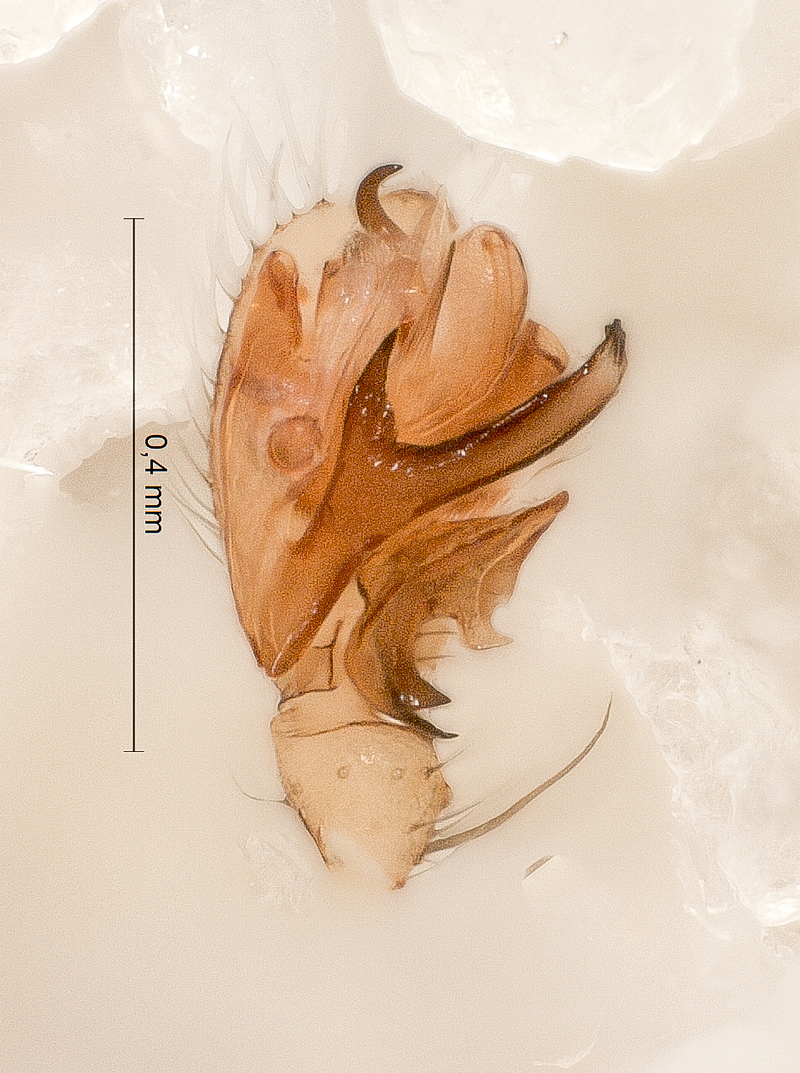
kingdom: Animalia
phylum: Arthropoda
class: Arachnida
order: Araneae
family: Linyphiidae
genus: Palliduphantes
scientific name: Palliduphantes pallidus
